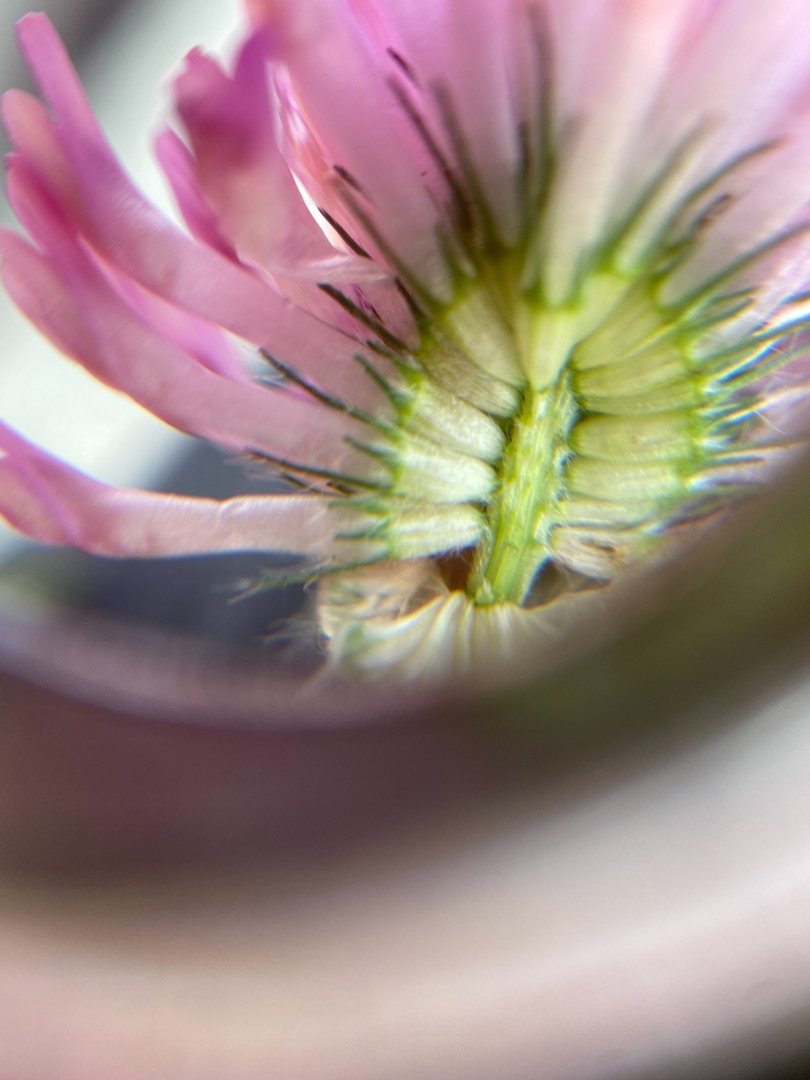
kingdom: Plantae
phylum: Tracheophyta
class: Magnoliopsida
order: Fabales
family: Fabaceae
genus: Trifolium
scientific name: Trifolium pratense
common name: Rød-kløver
